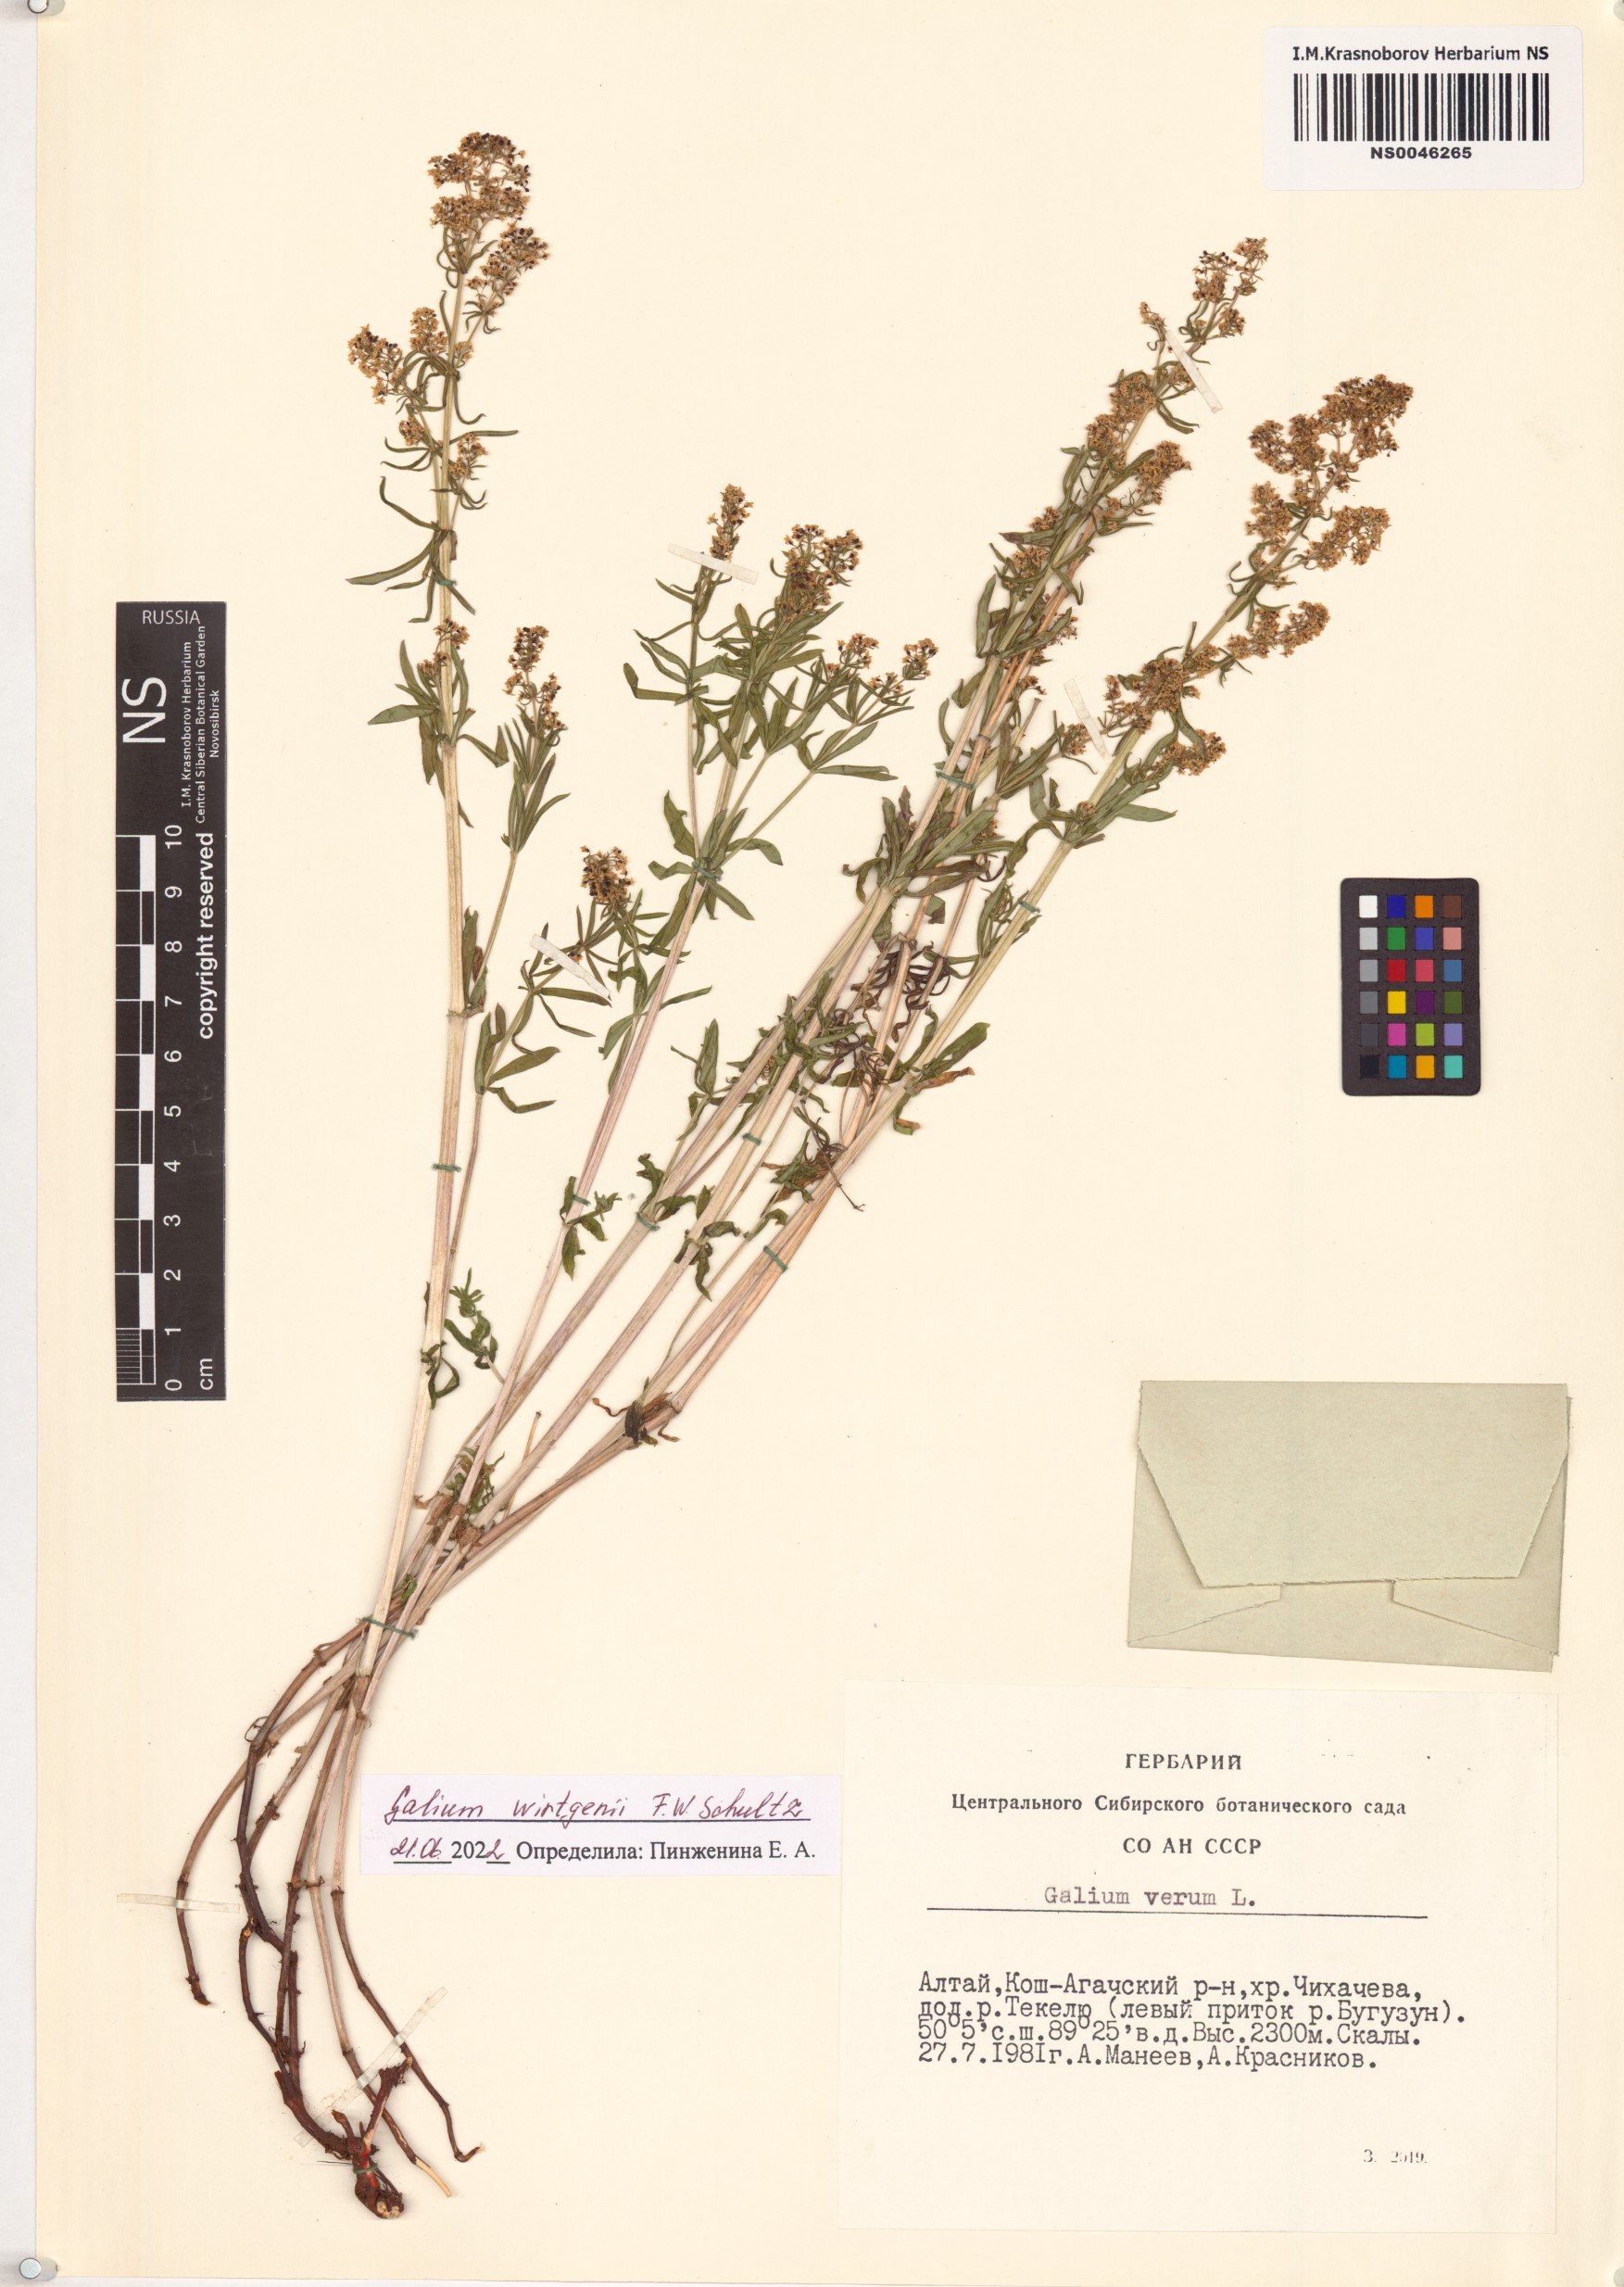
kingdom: Plantae
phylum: Tracheophyta
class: Magnoliopsida
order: Gentianales
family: Rubiaceae
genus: Galium
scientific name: Galium verum
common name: Lady's bedstraw
